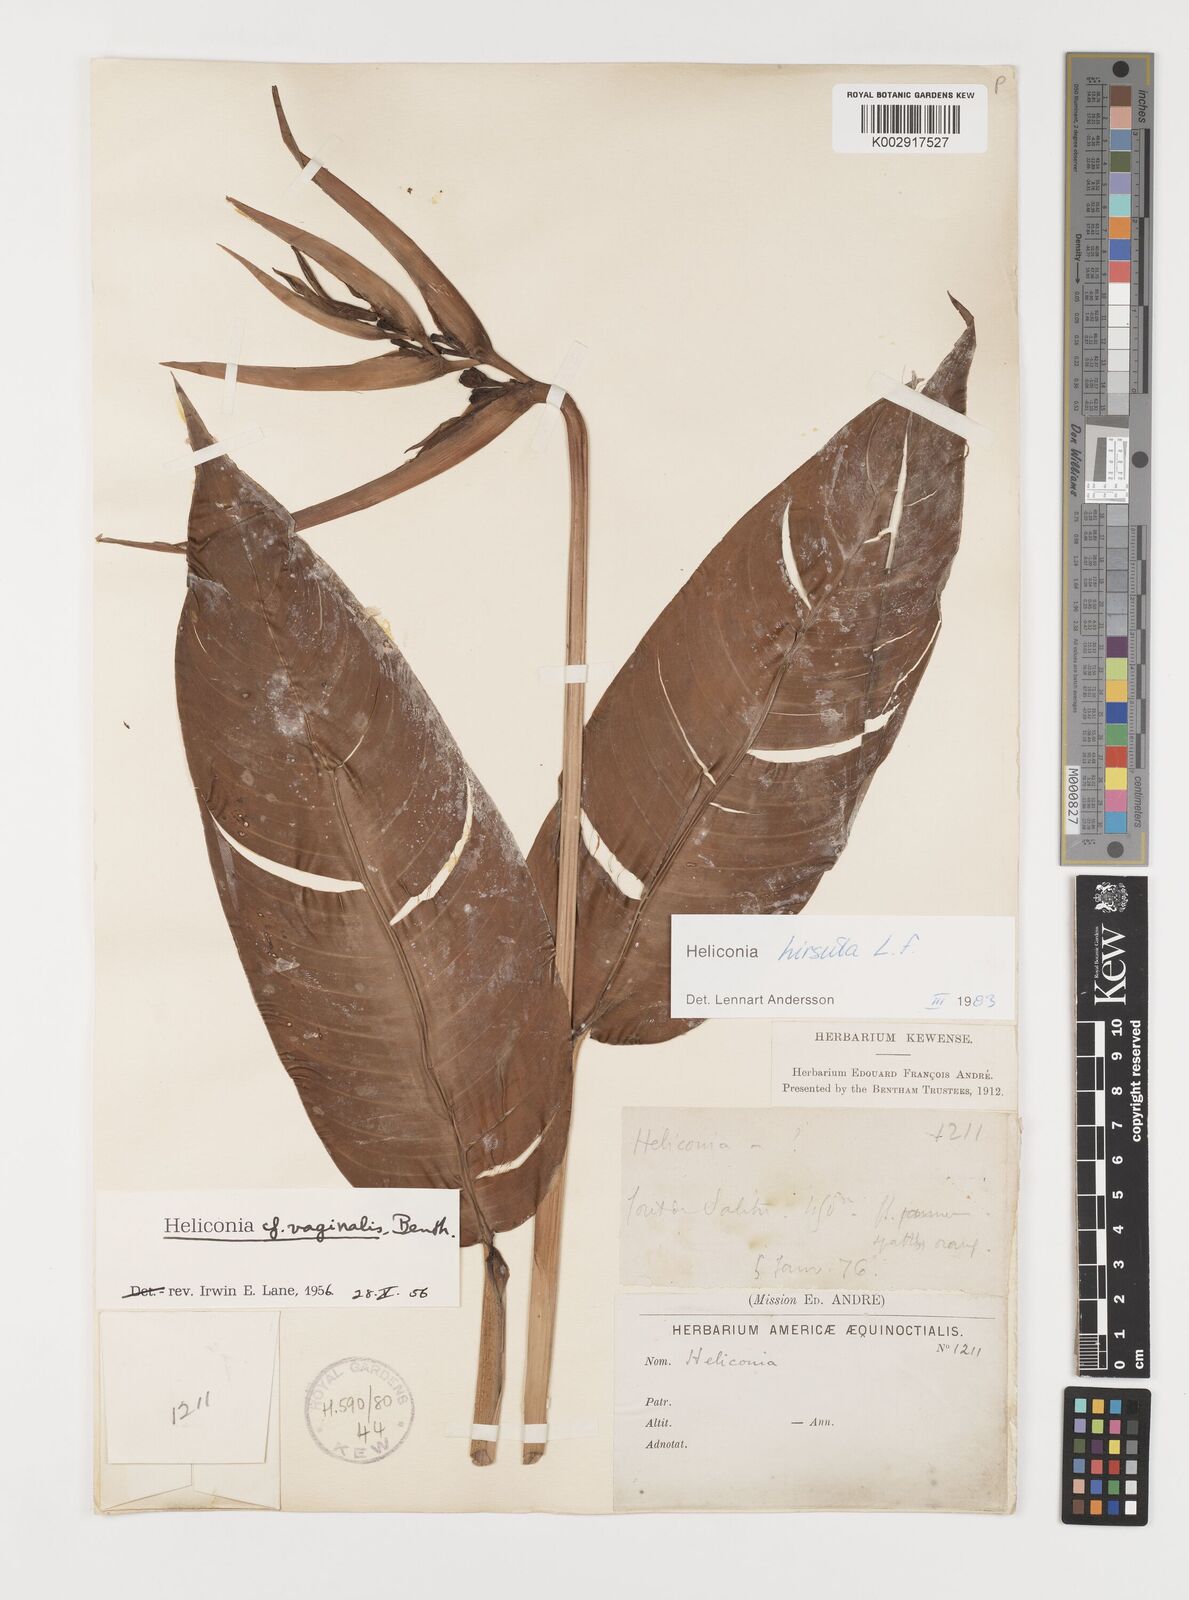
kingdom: Plantae
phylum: Tracheophyta
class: Liliopsida
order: Zingiberales
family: Heliconiaceae
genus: Heliconia
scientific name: Heliconia hirsuta
